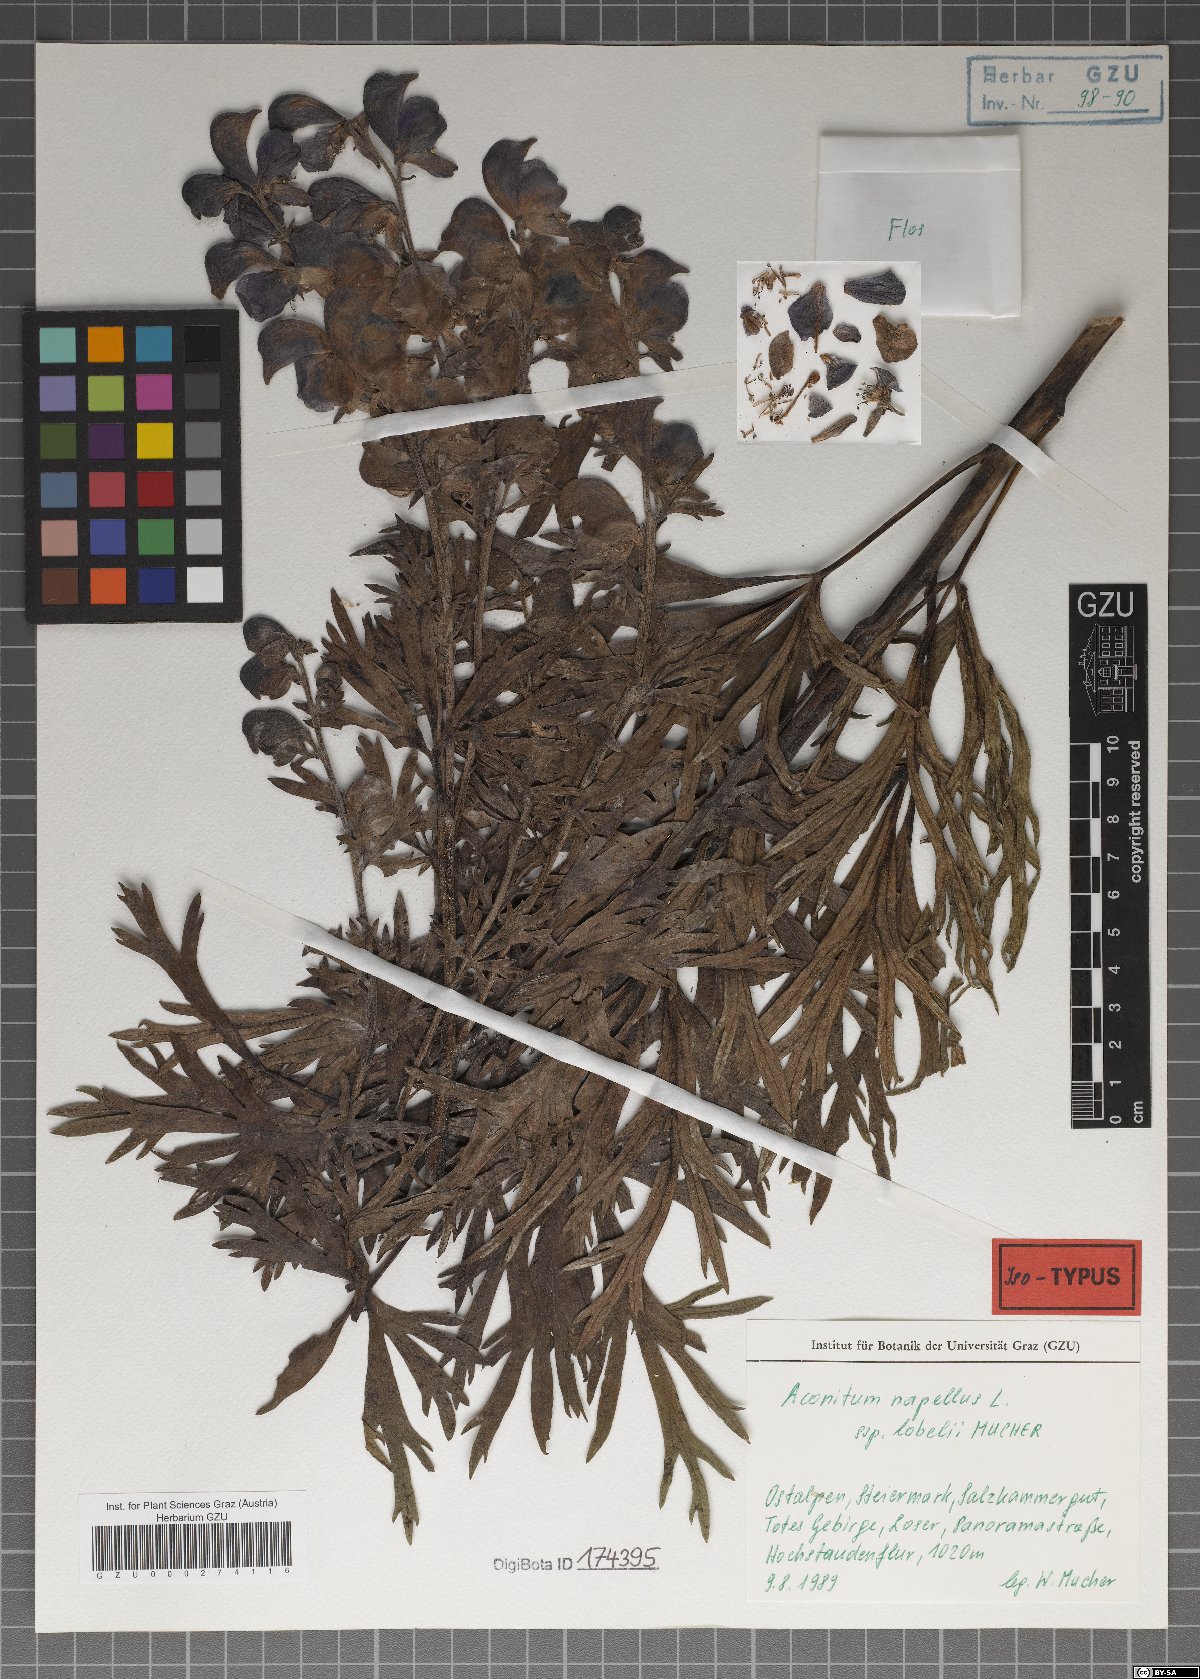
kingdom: Plantae
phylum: Tracheophyta
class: Magnoliopsida
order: Ranunculales
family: Ranunculaceae
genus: Aconitum
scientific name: Aconitum napellus
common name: Garden monkshood
